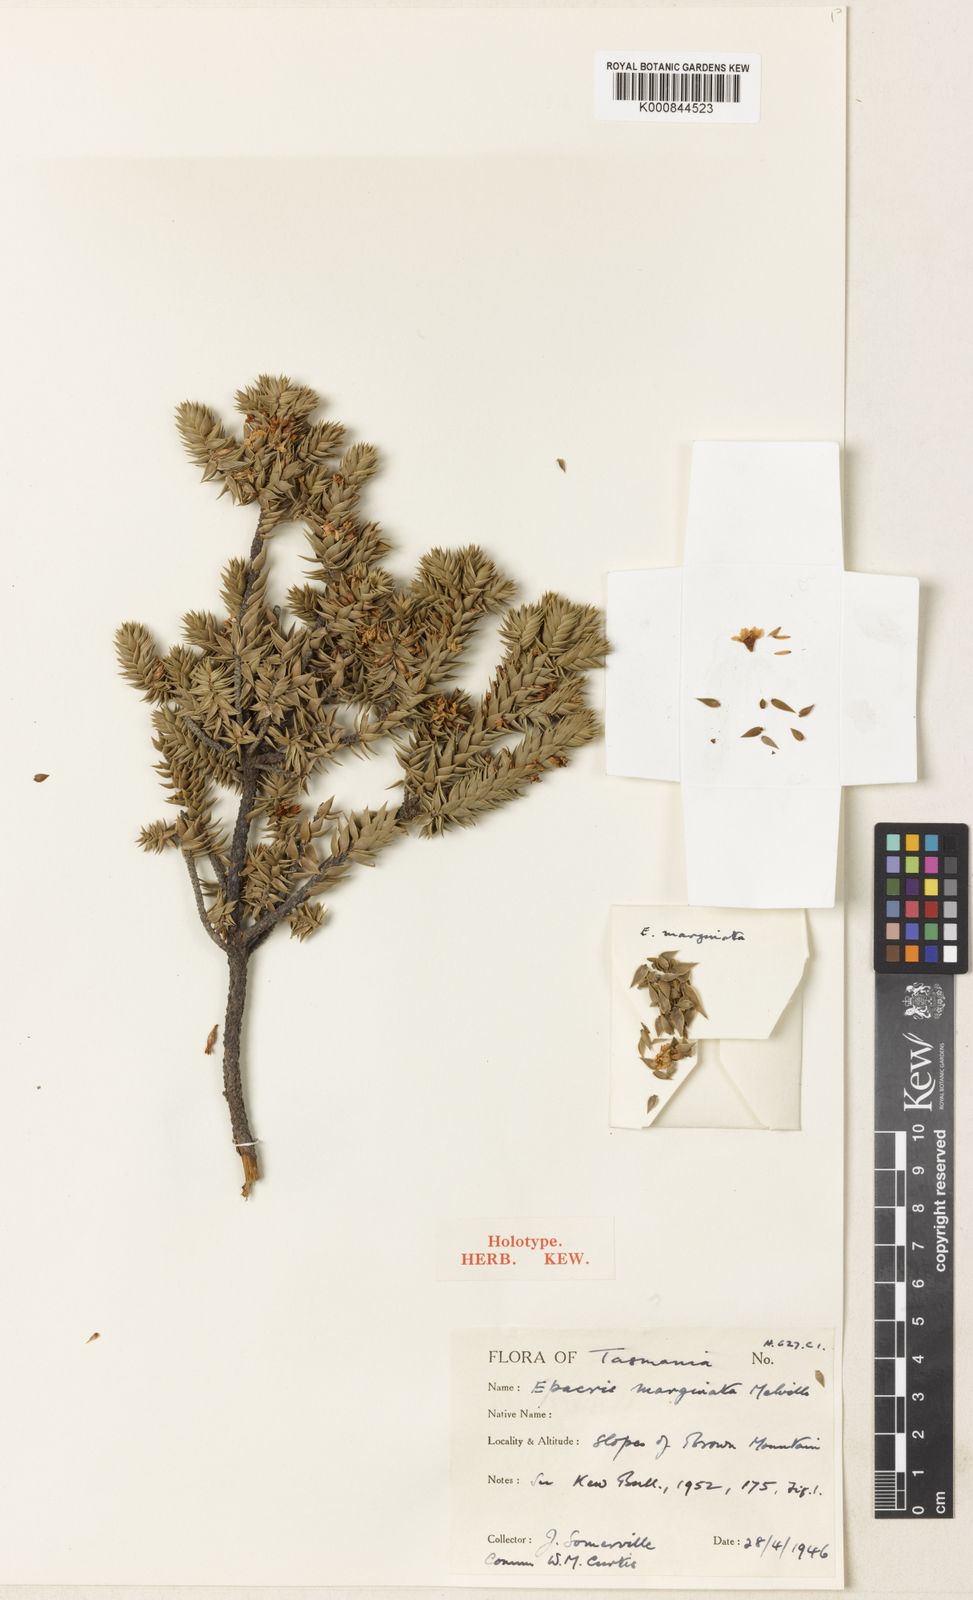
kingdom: Plantae
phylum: Tracheophyta
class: Magnoliopsida
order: Ericales
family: Ericaceae
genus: Epacris
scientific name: Epacris marginata
